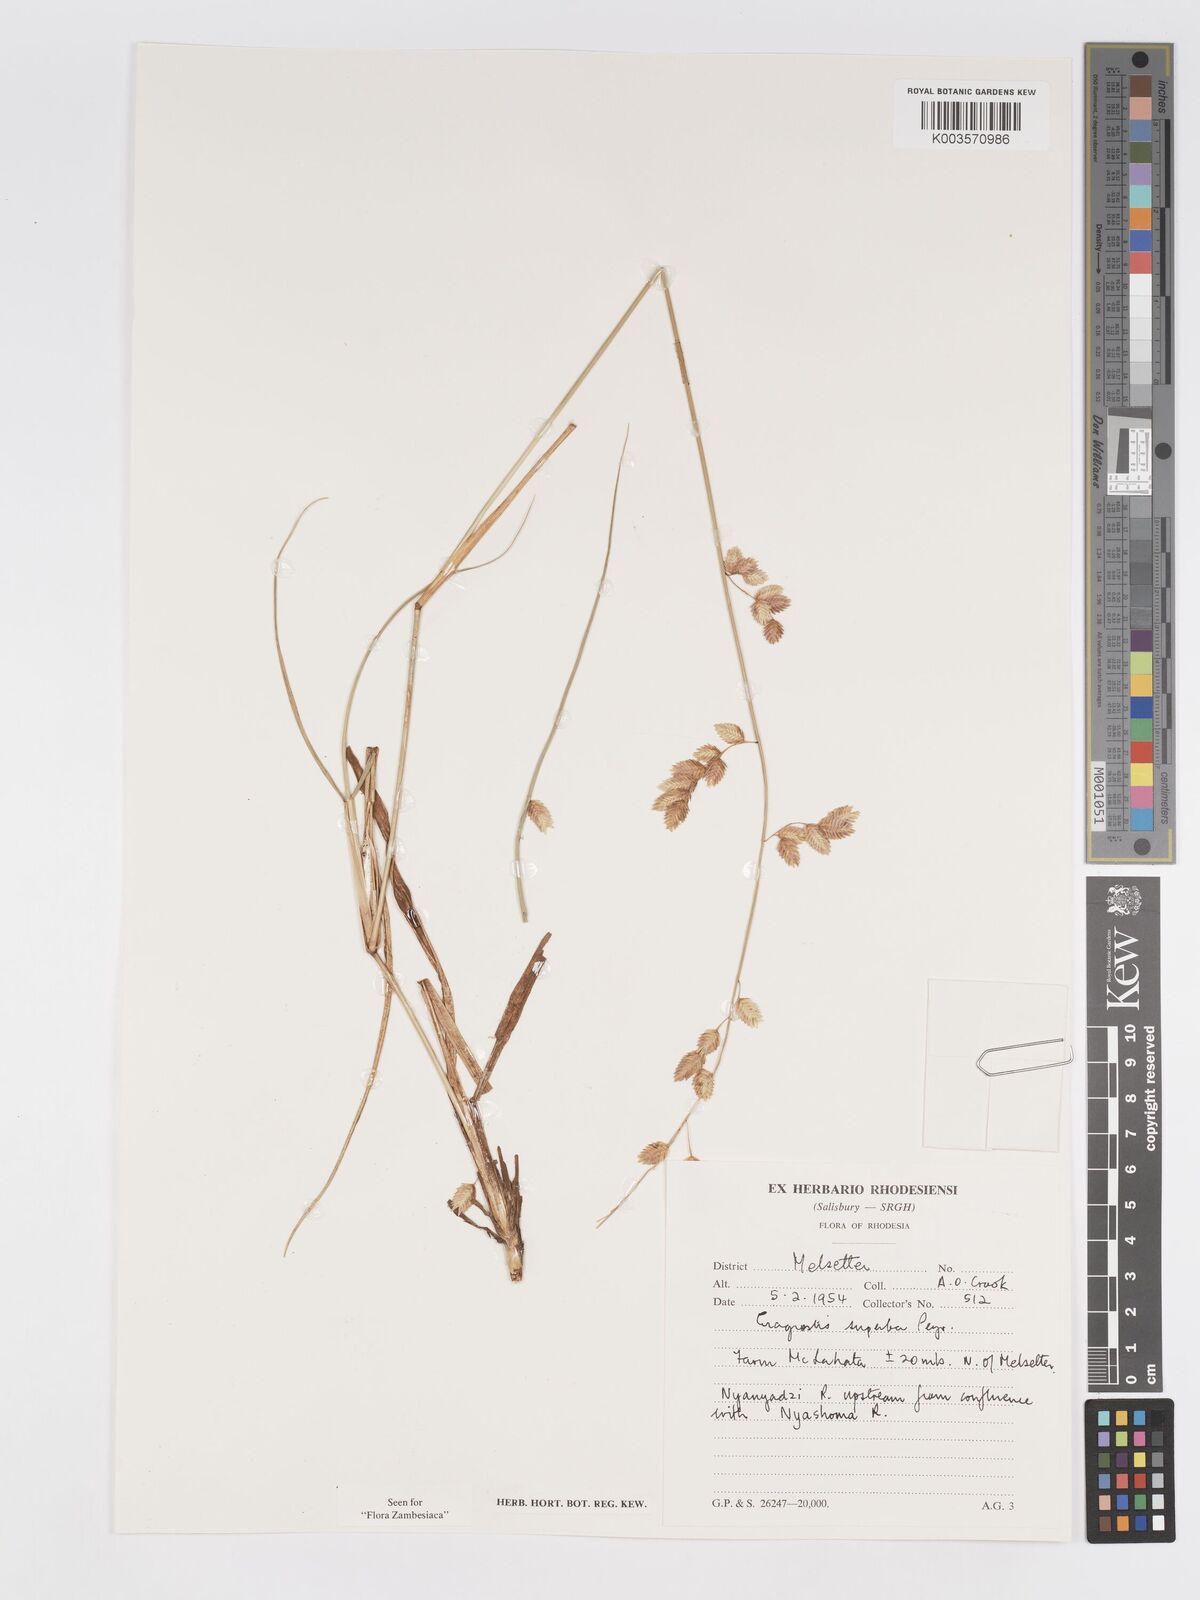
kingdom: Plantae
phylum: Tracheophyta
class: Liliopsida
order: Poales
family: Poaceae
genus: Eragrostis
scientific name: Eragrostis superba
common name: Wilman lovegrass
